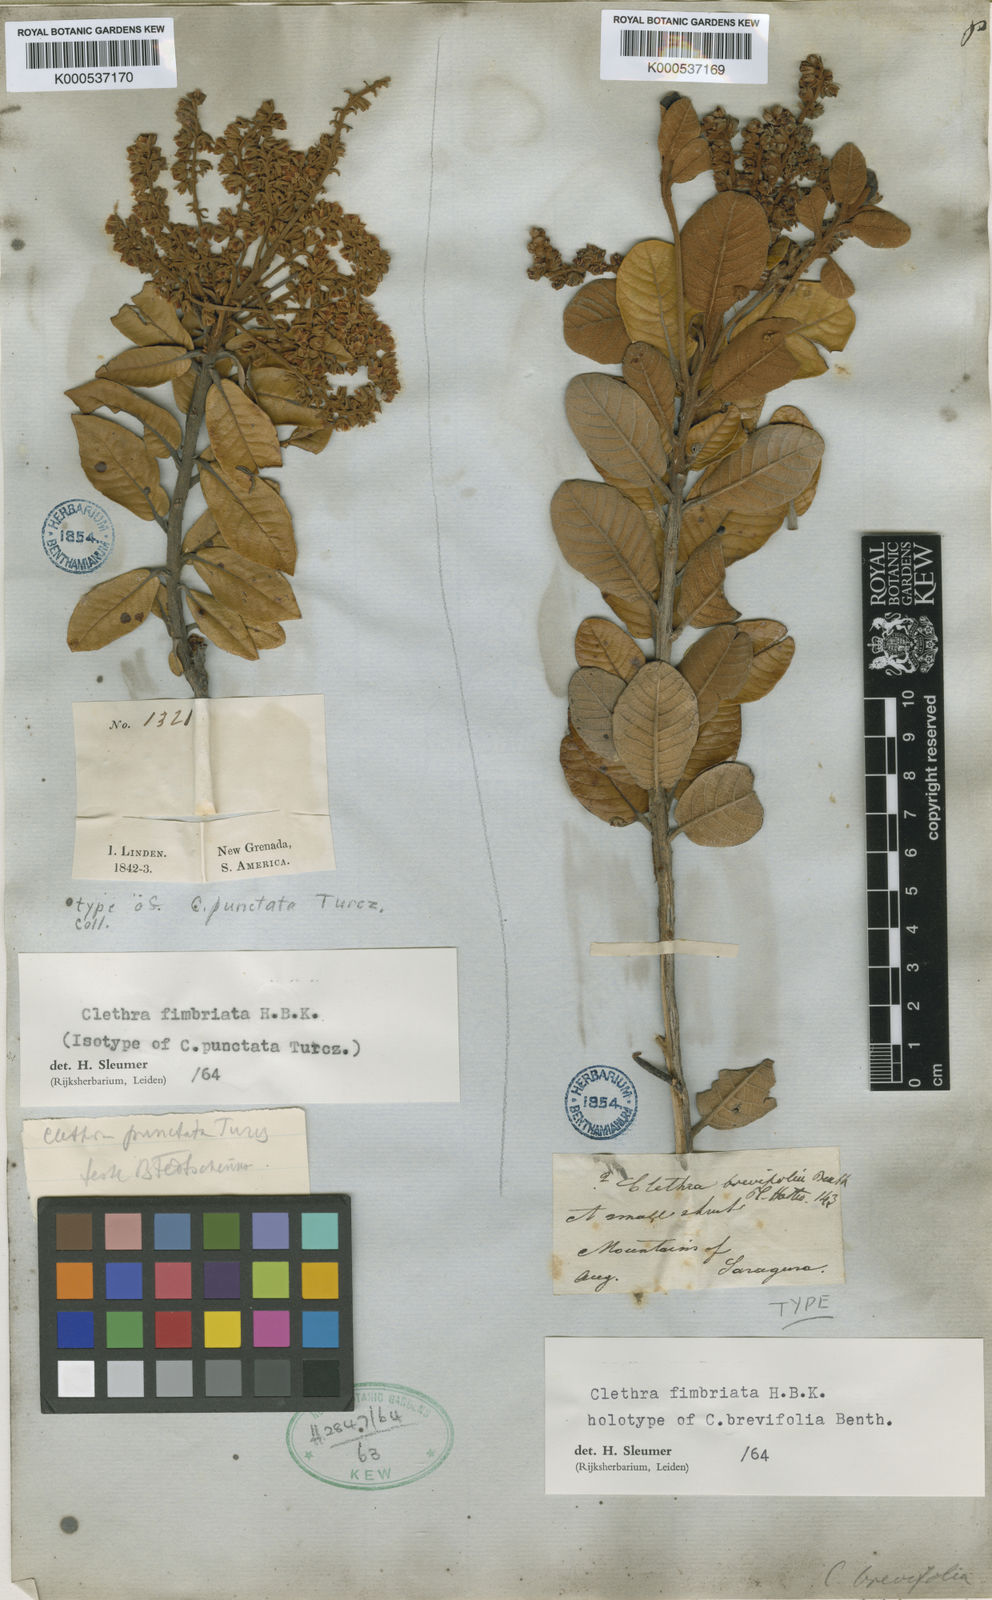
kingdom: Plantae
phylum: Tracheophyta
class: Magnoliopsida
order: Ericales
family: Clethraceae
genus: Clethra
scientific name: Clethra fimbriata
